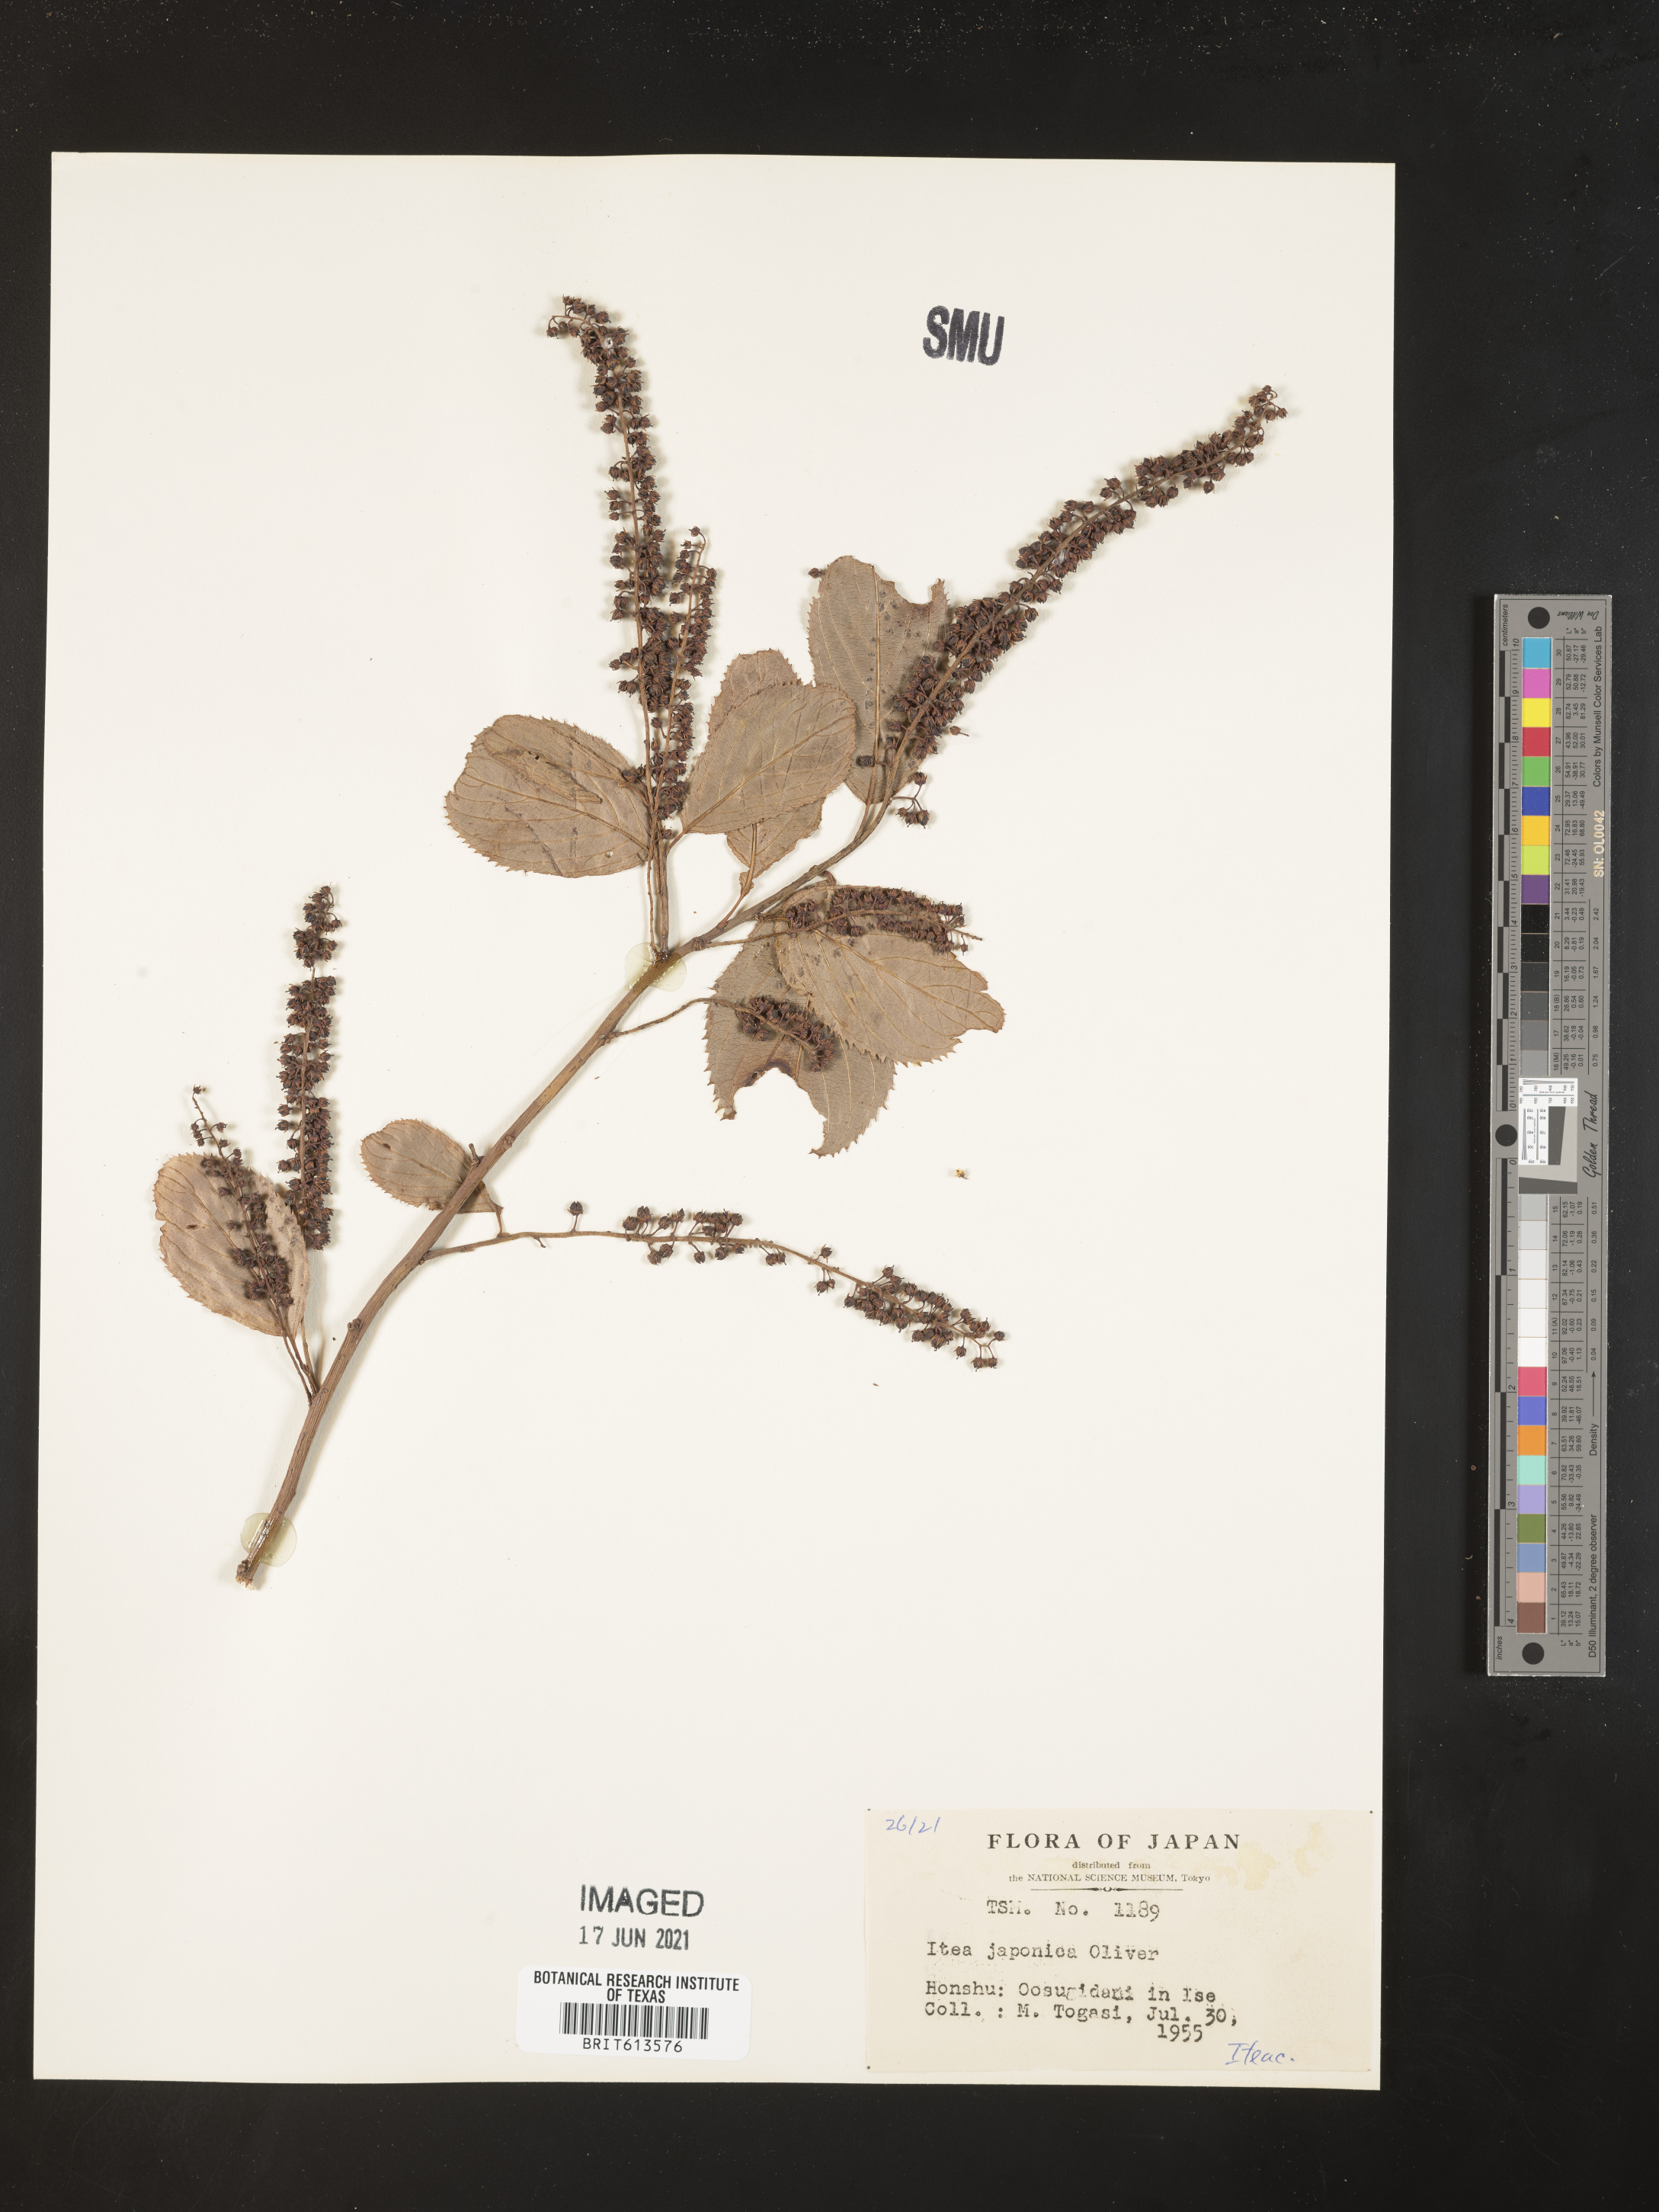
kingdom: Plantae
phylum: Tracheophyta
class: Magnoliopsida
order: Saxifragales
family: Iteaceae
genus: Itea
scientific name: Itea japonica
